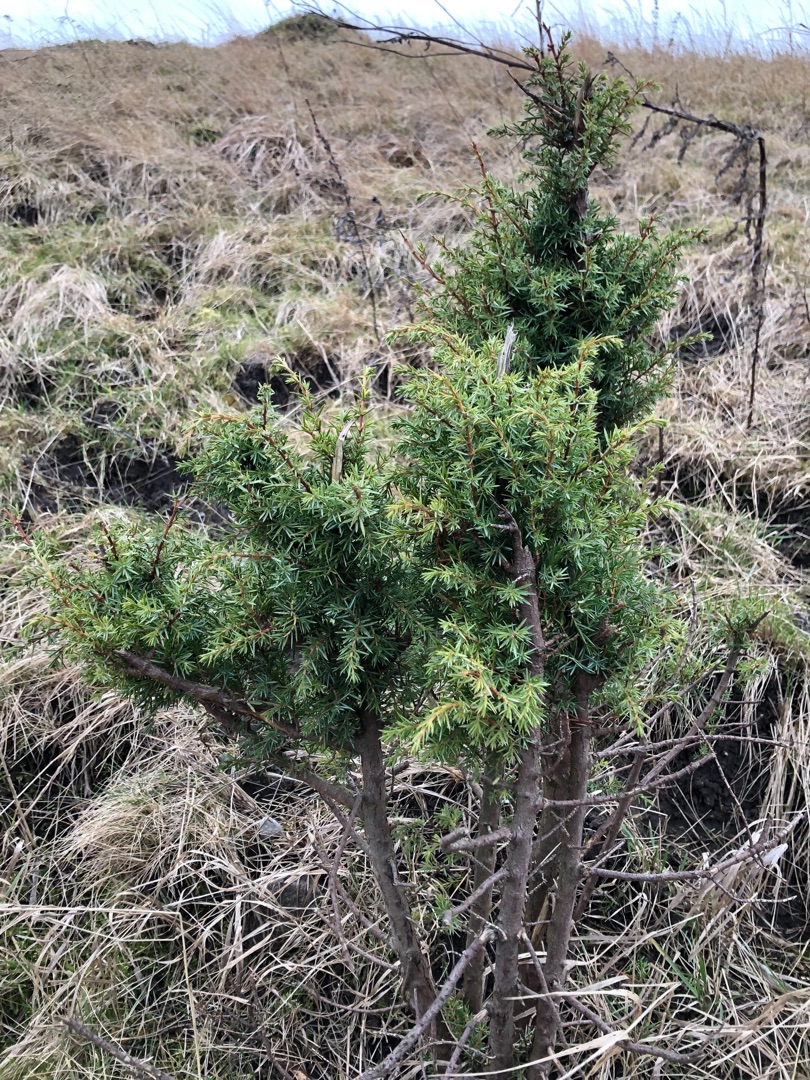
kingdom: Plantae
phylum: Tracheophyta
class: Pinopsida
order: Pinales
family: Cupressaceae
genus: Juniperus
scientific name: Juniperus communis
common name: Almindelig ene
